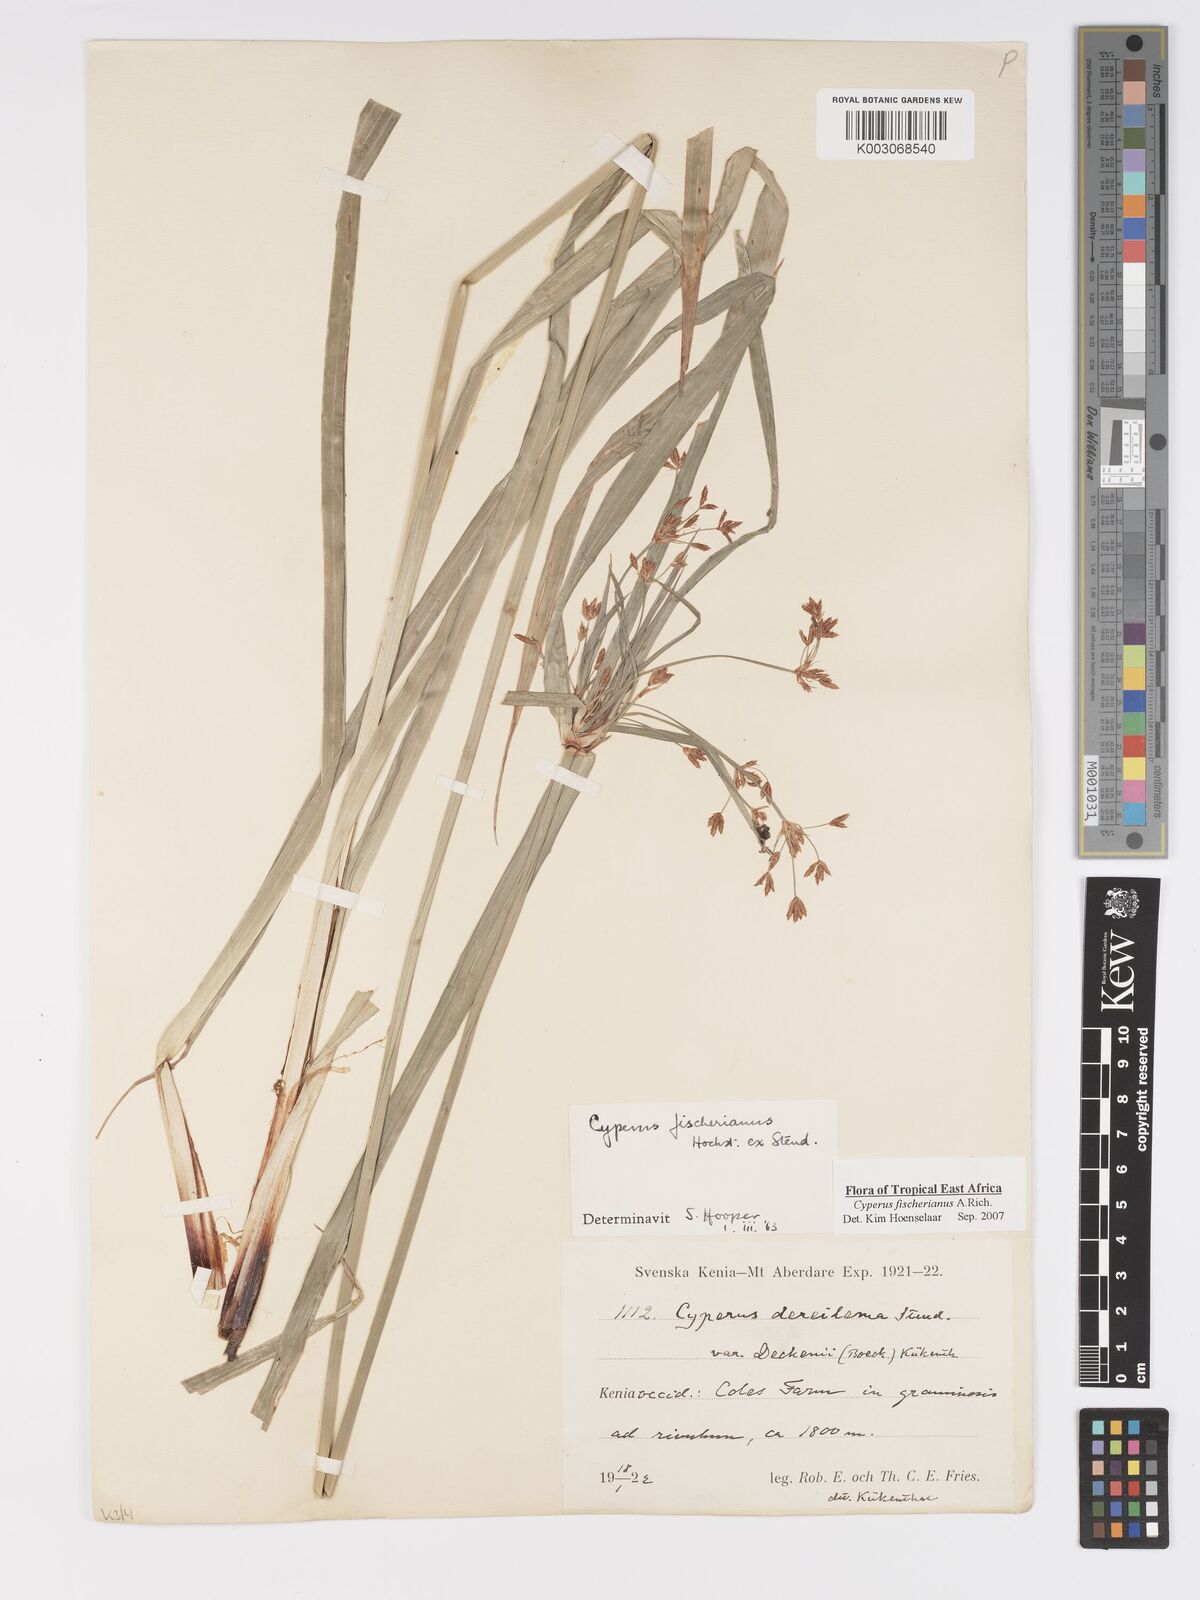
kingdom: Plantae
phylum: Tracheophyta
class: Liliopsida
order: Poales
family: Cyperaceae
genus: Cyperus
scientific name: Cyperus fischerianus
